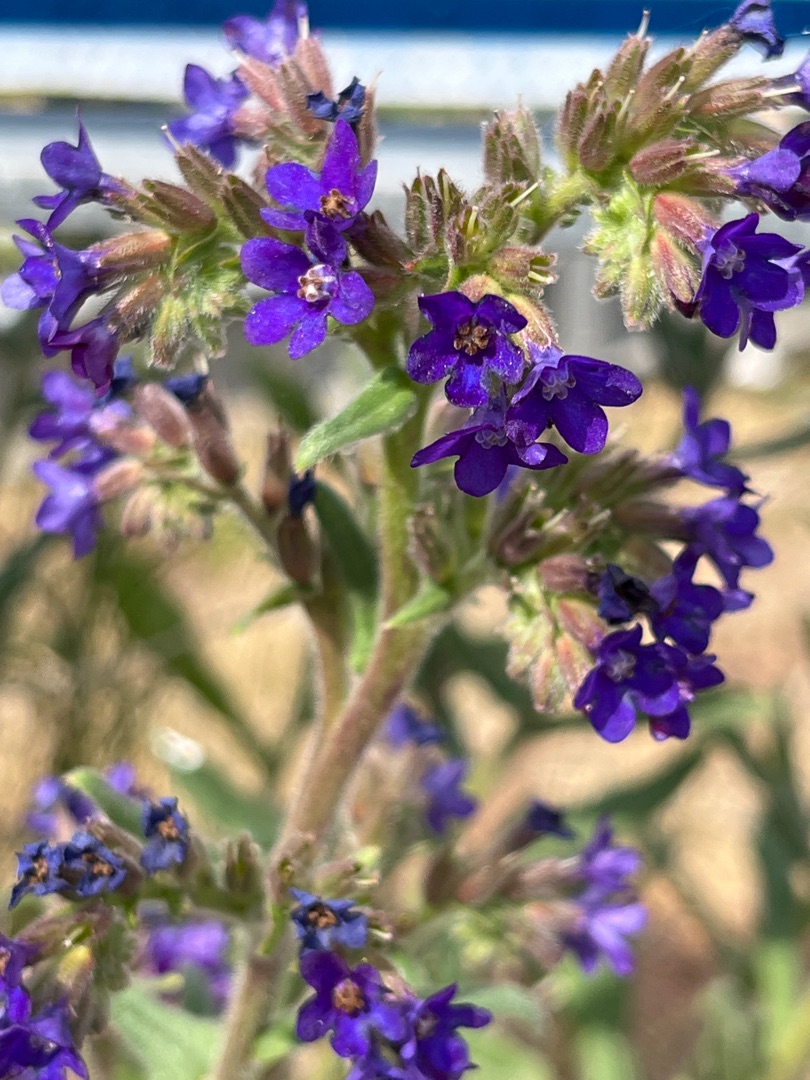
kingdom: Plantae
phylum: Tracheophyta
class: Magnoliopsida
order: Boraginales
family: Boraginaceae
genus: Anchusa
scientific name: Anchusa officinalis
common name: Læge-oksetunge
